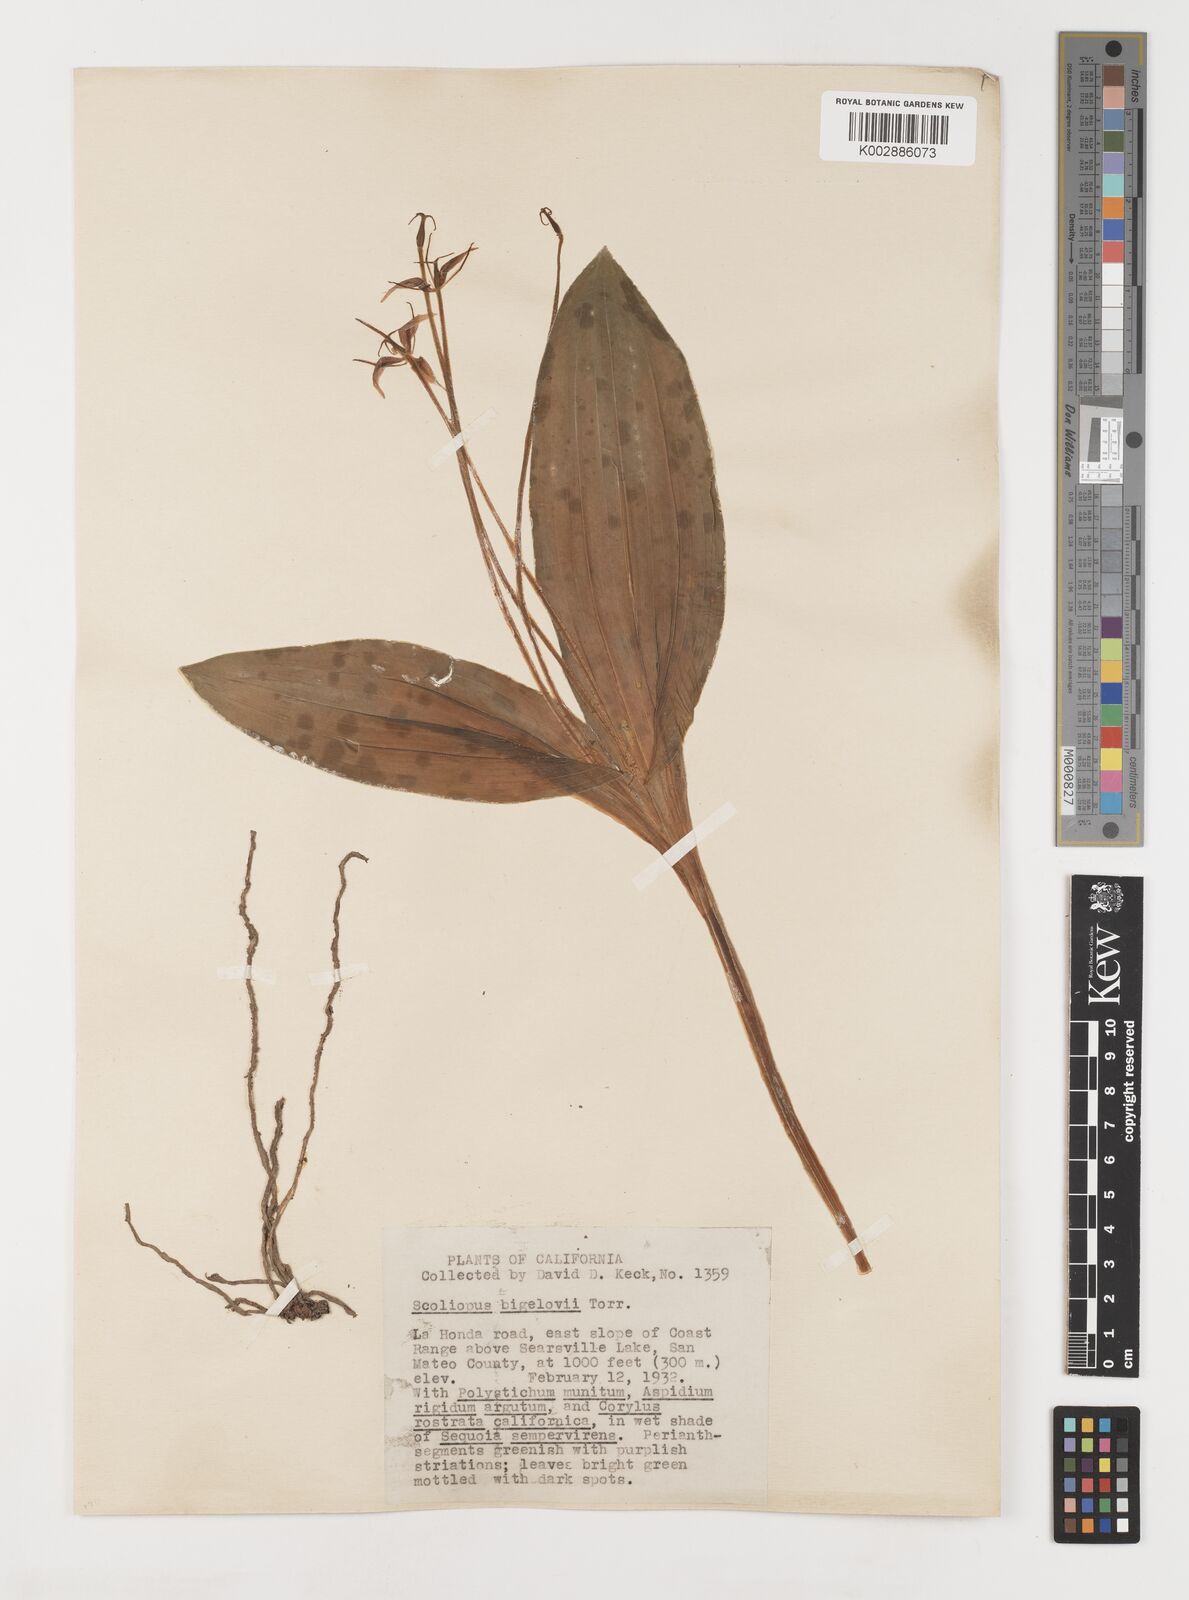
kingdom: Plantae
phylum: Tracheophyta
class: Liliopsida
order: Liliales
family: Liliaceae
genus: Scoliopus
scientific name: Scoliopus bigelovii
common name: Foetid adder's-tongue
